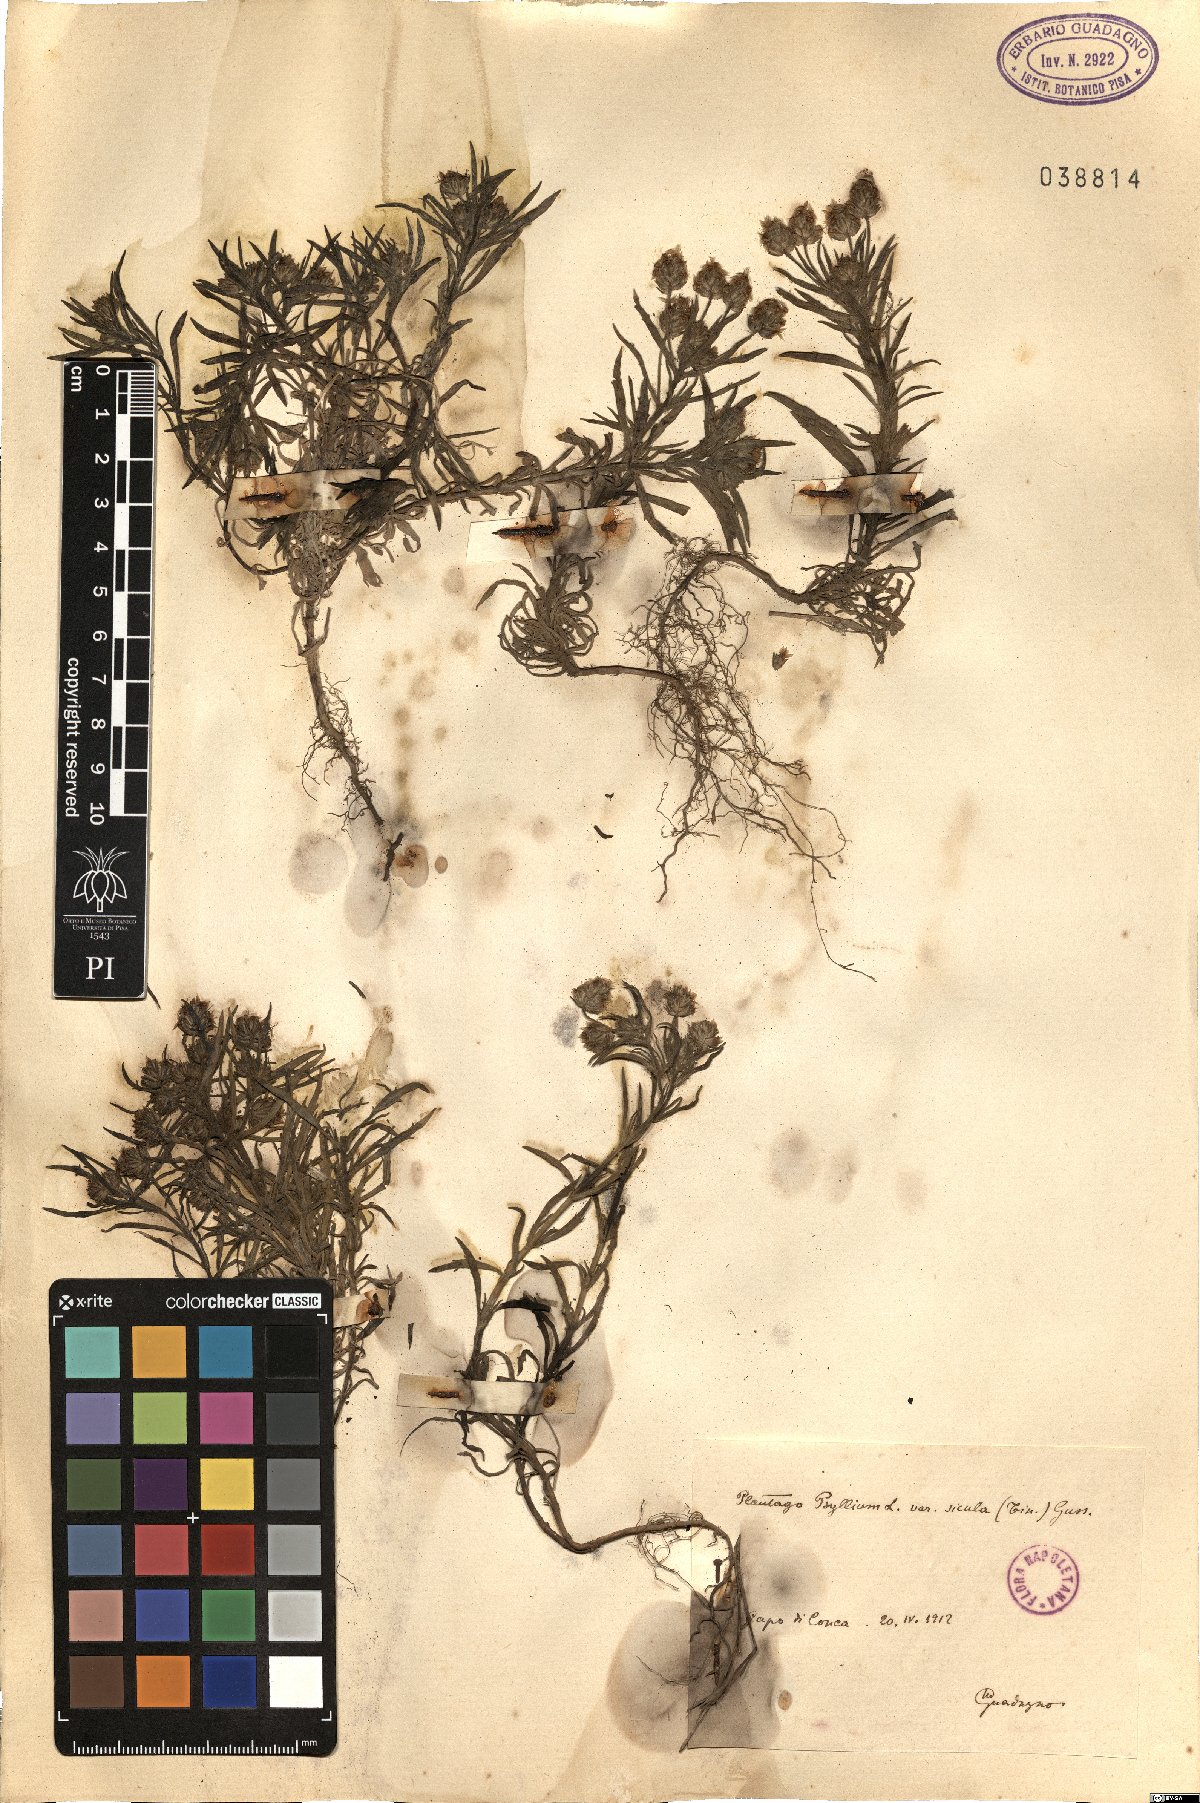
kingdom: Plantae
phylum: Tracheophyta
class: Magnoliopsida
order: Lamiales
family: Plantaginaceae
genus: Plantago
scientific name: Plantago afra
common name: Glandular plantain
